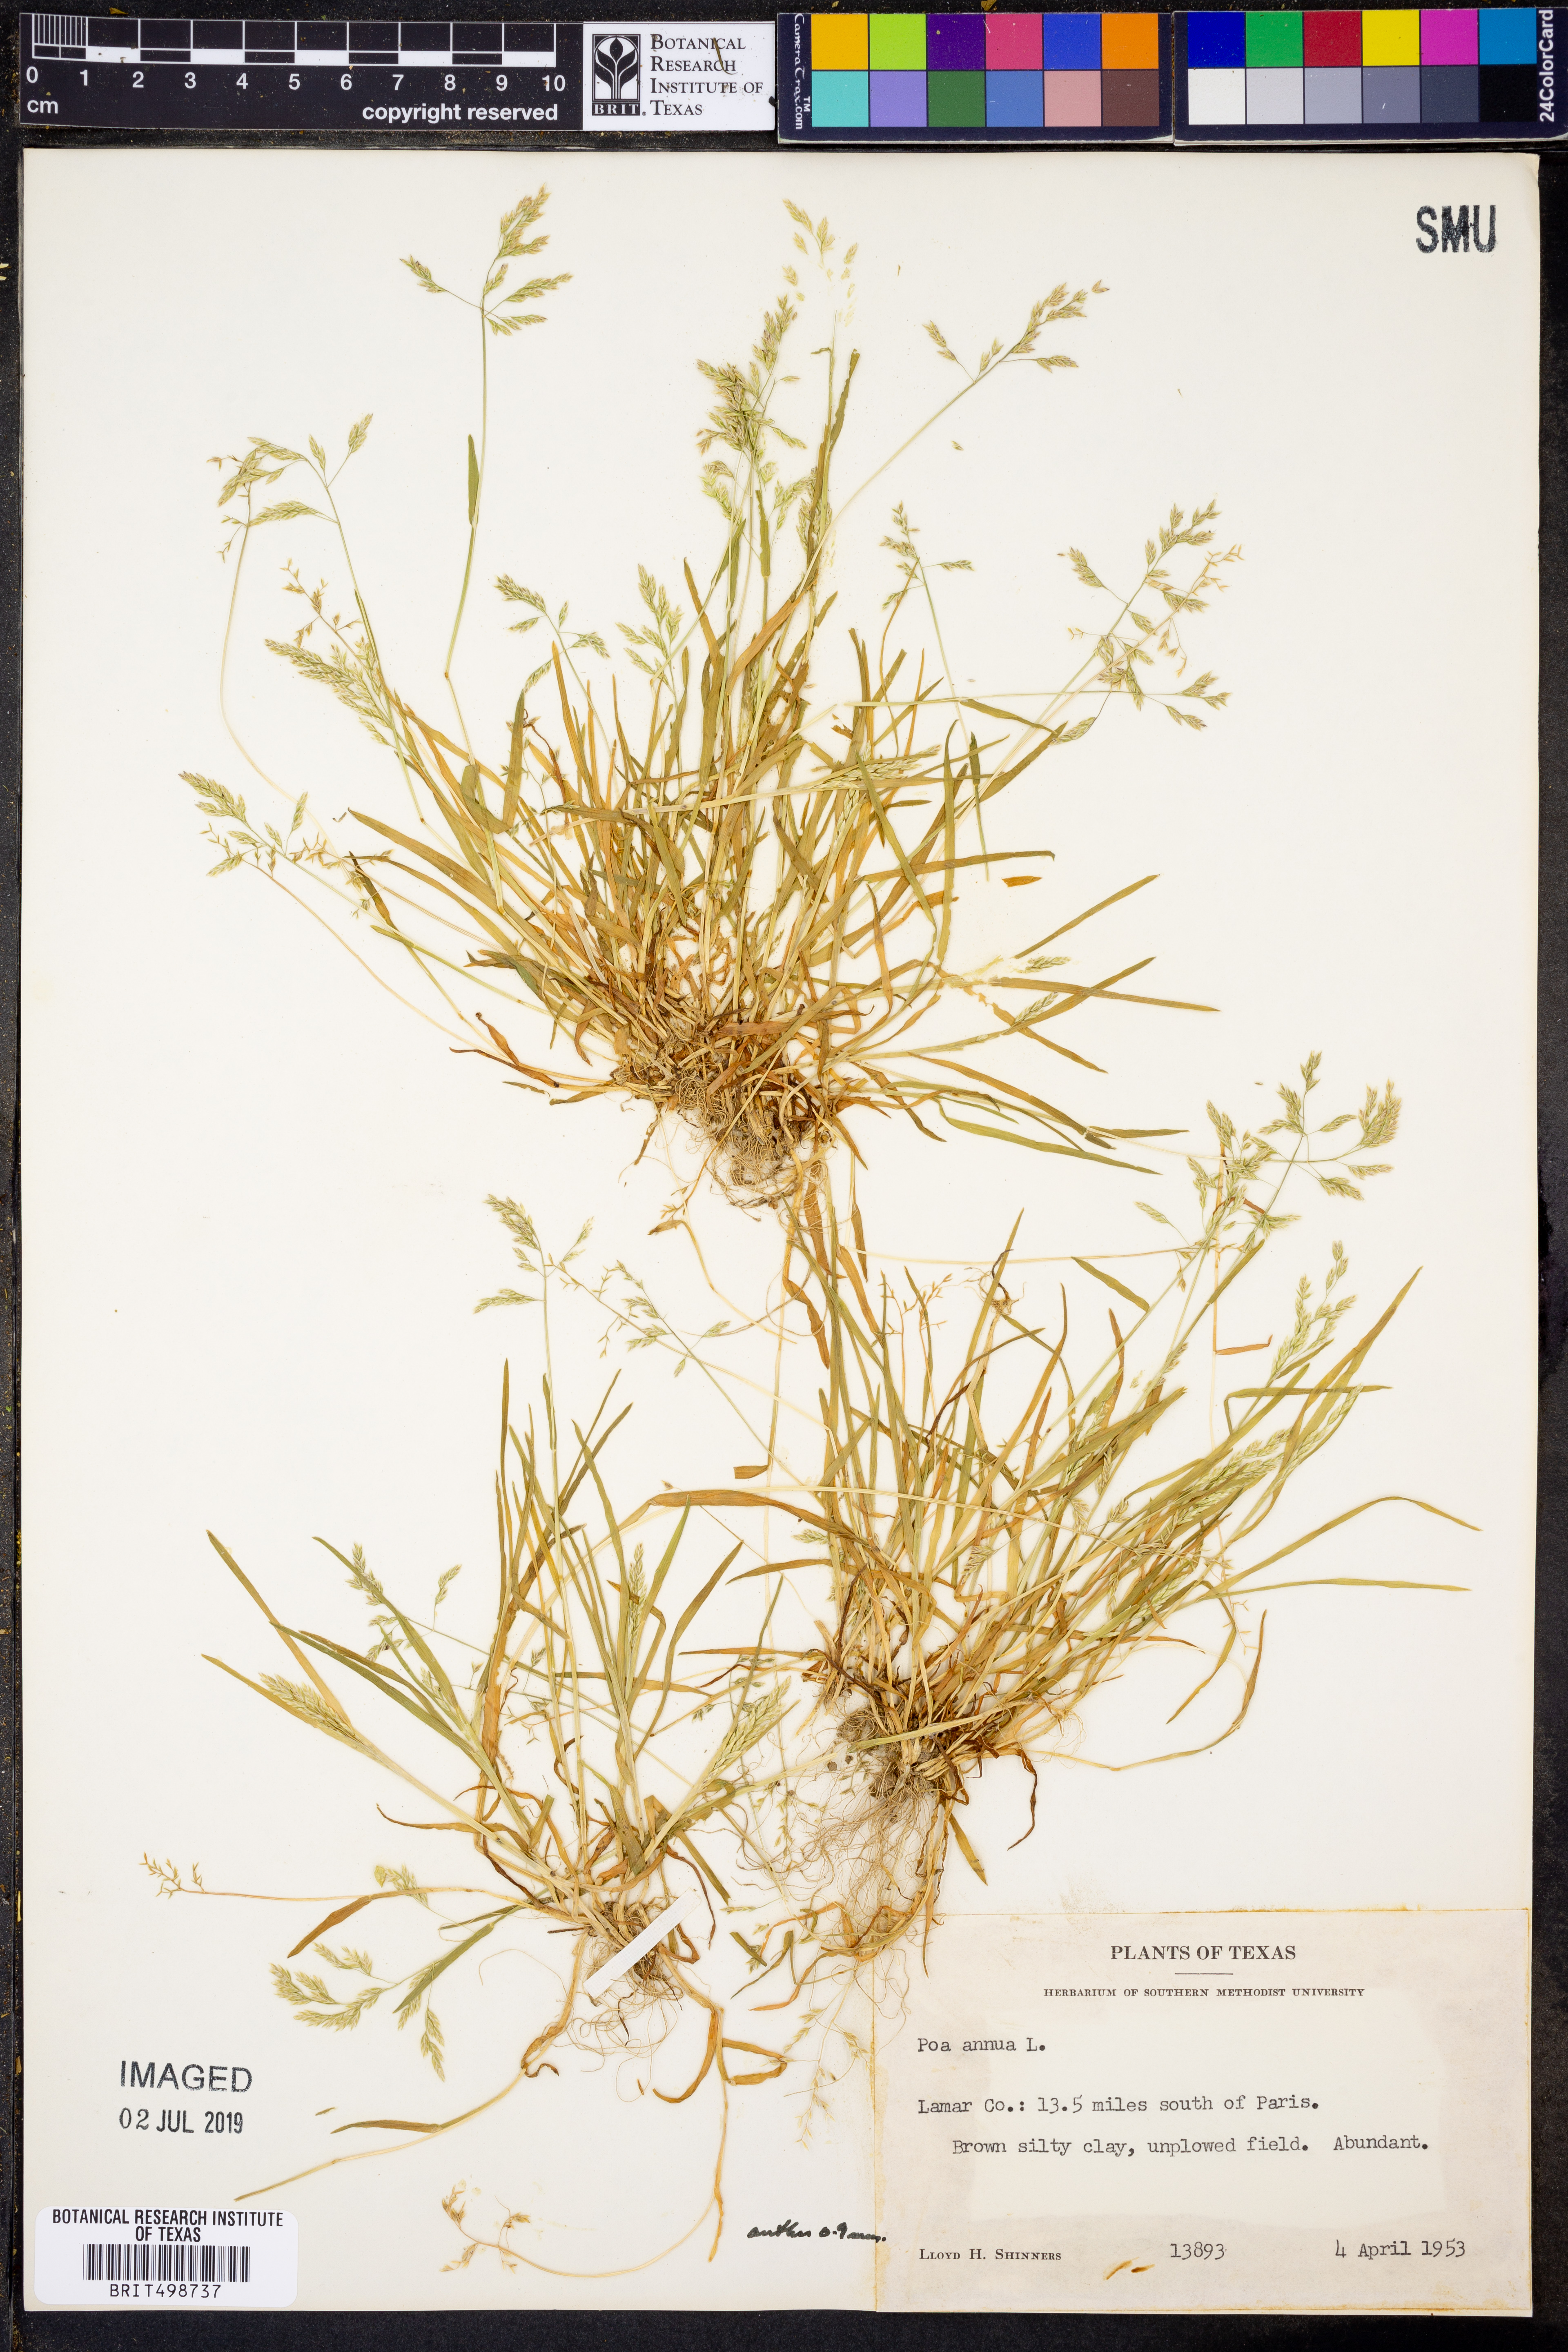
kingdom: Plantae
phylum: Tracheophyta
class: Liliopsida
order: Poales
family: Poaceae
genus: Poa
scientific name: Poa annua
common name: Annual bluegrass
